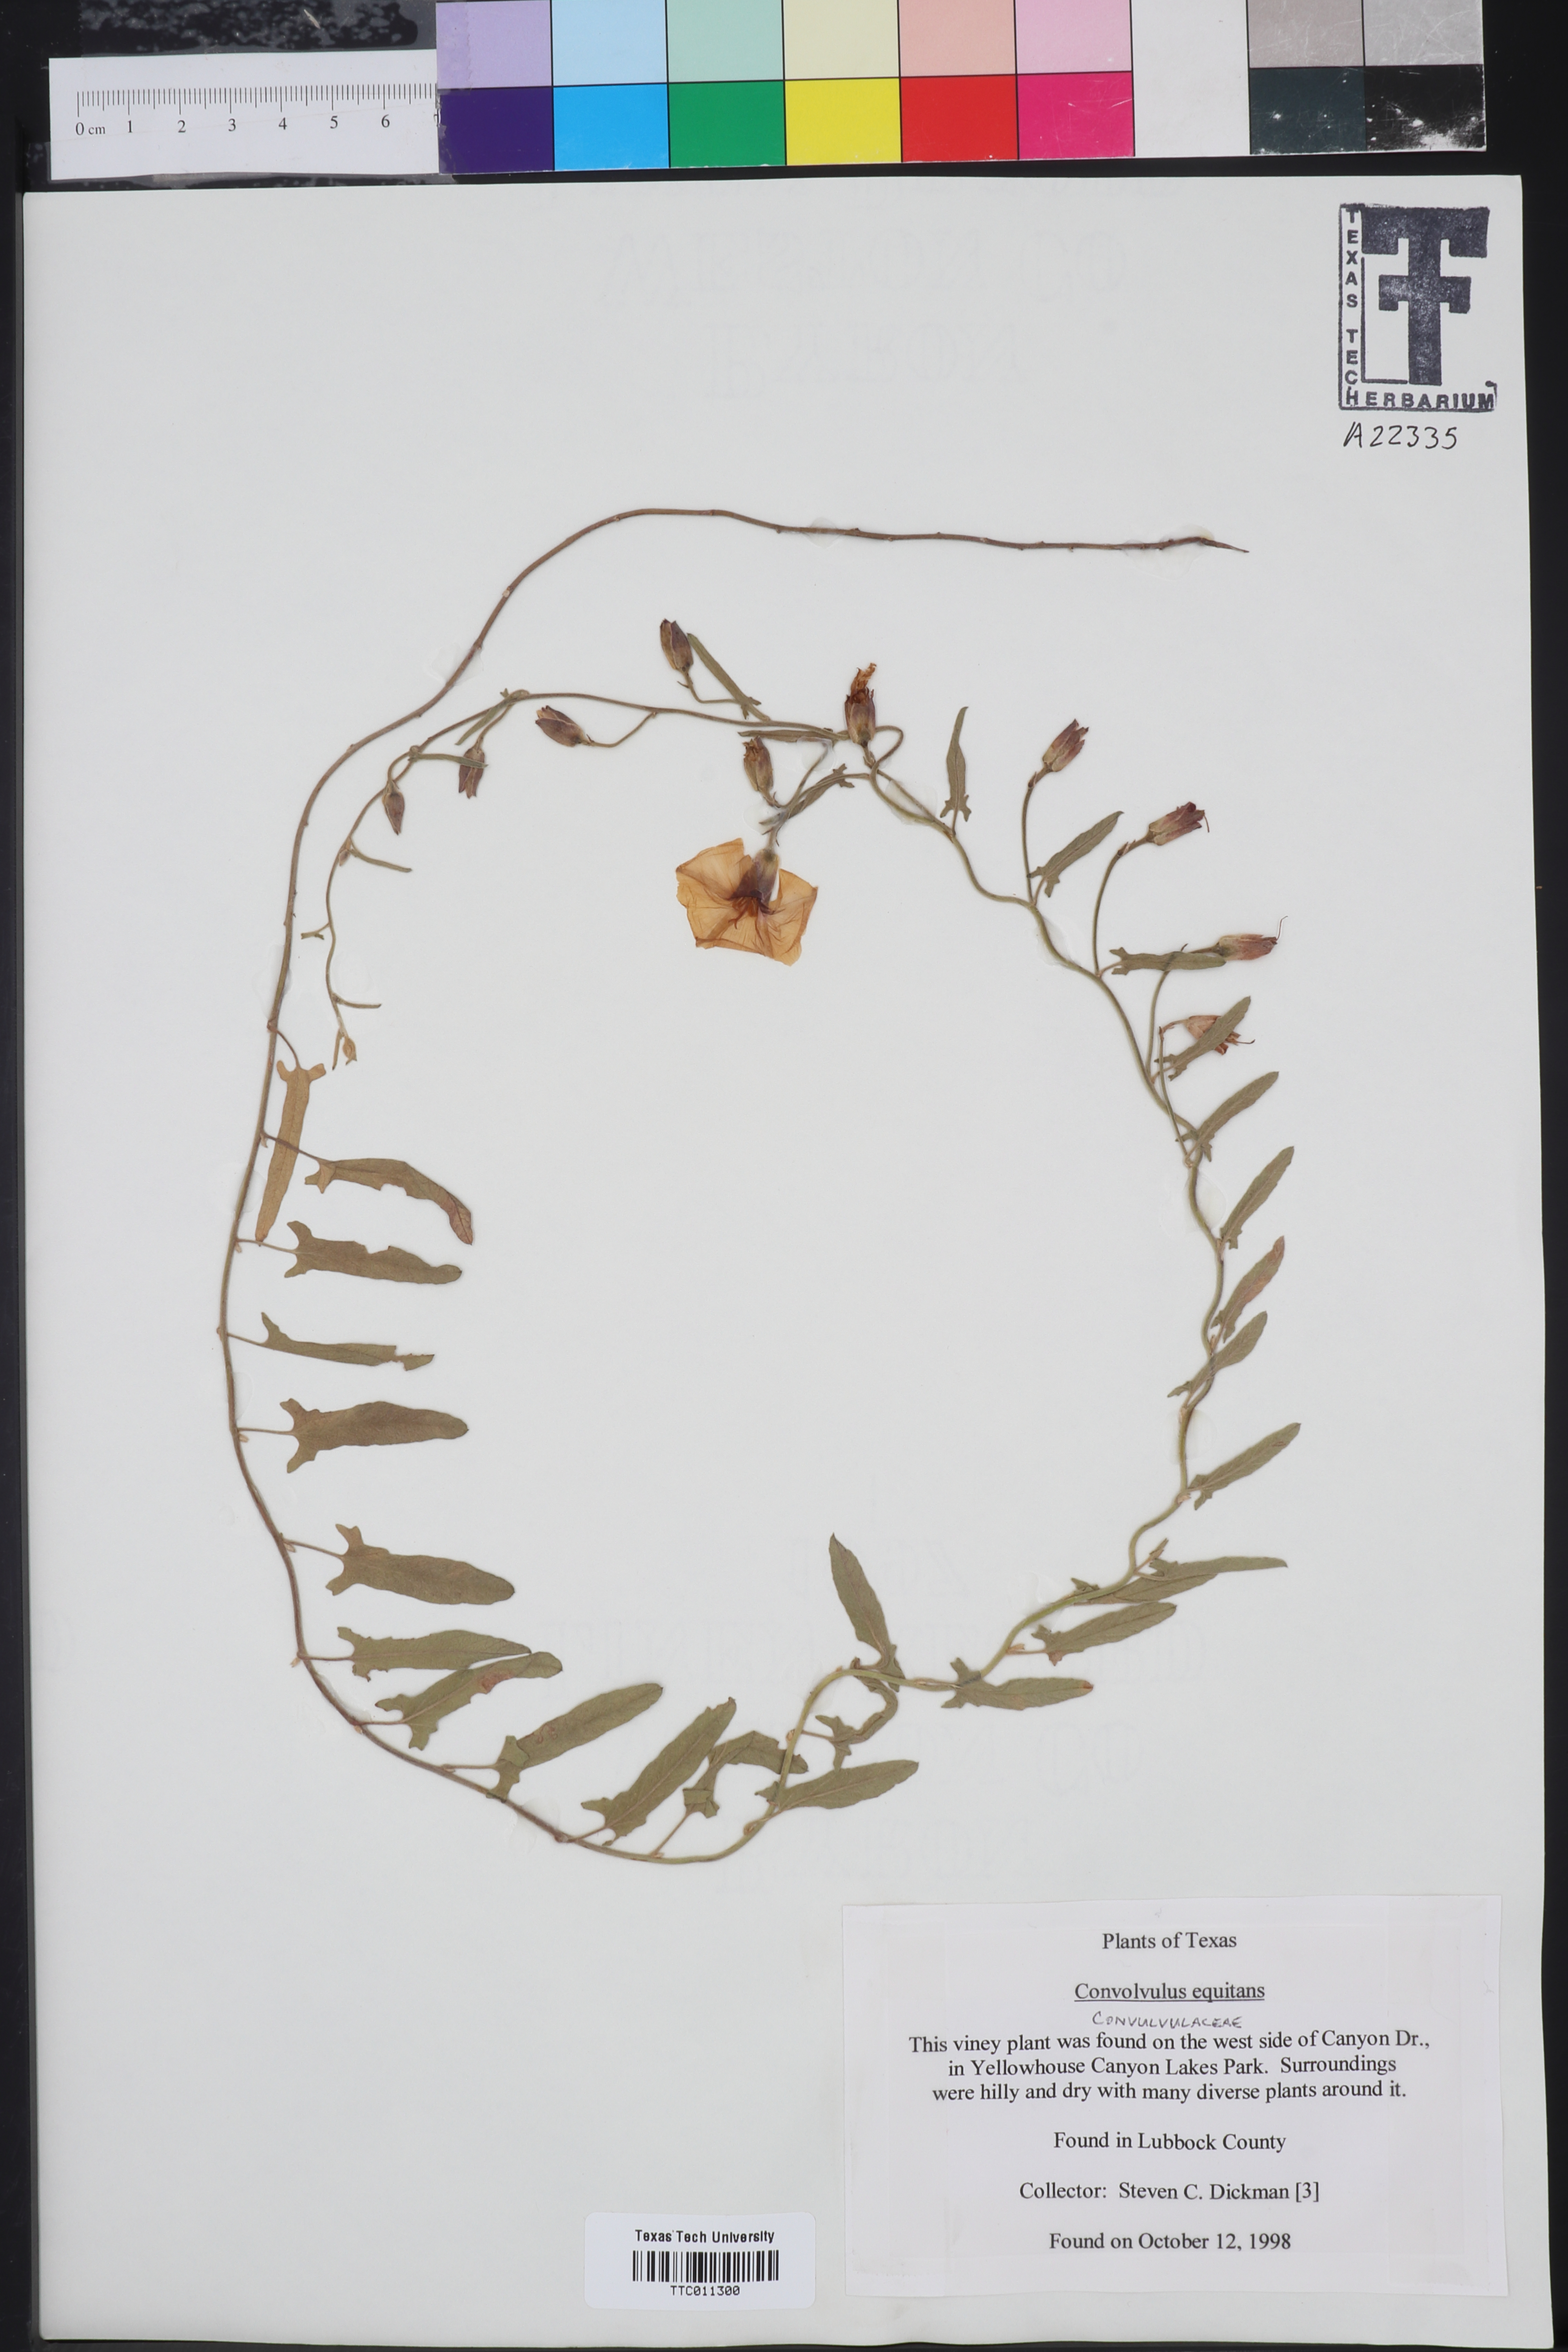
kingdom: Plantae
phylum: Tracheophyta
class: Magnoliopsida
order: Solanales
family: Convolvulaceae
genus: Convolvulus
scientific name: Convolvulus equitans
